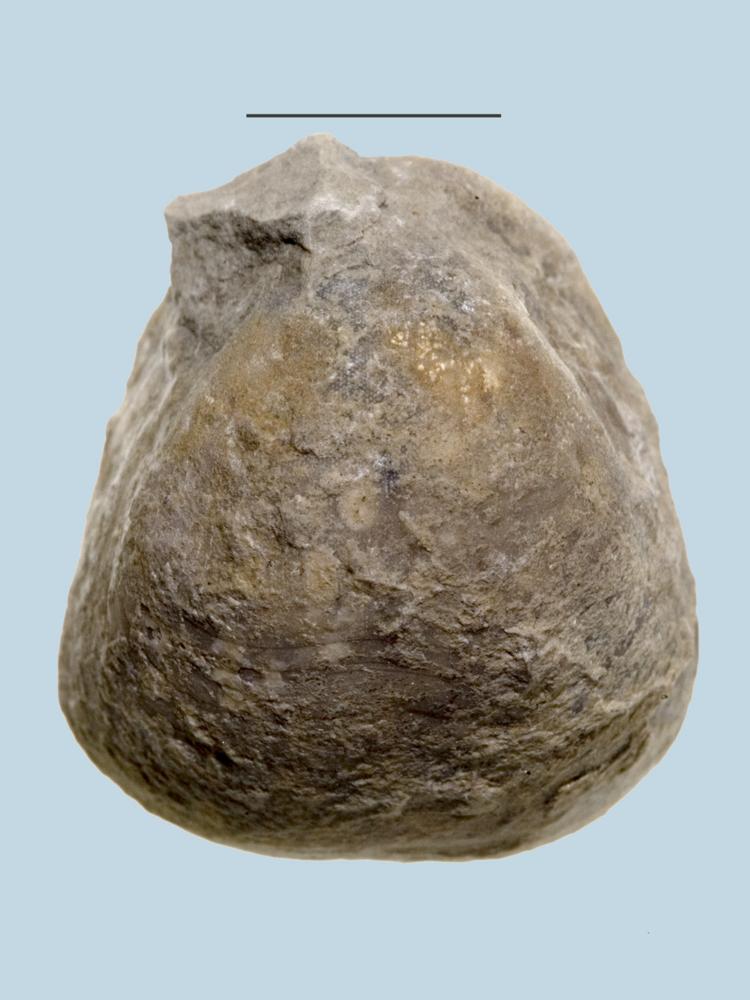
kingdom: Animalia
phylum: Brachiopoda
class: Rhynchonellata
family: Porambonitidae
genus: Porambonites
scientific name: Porambonites baueri
